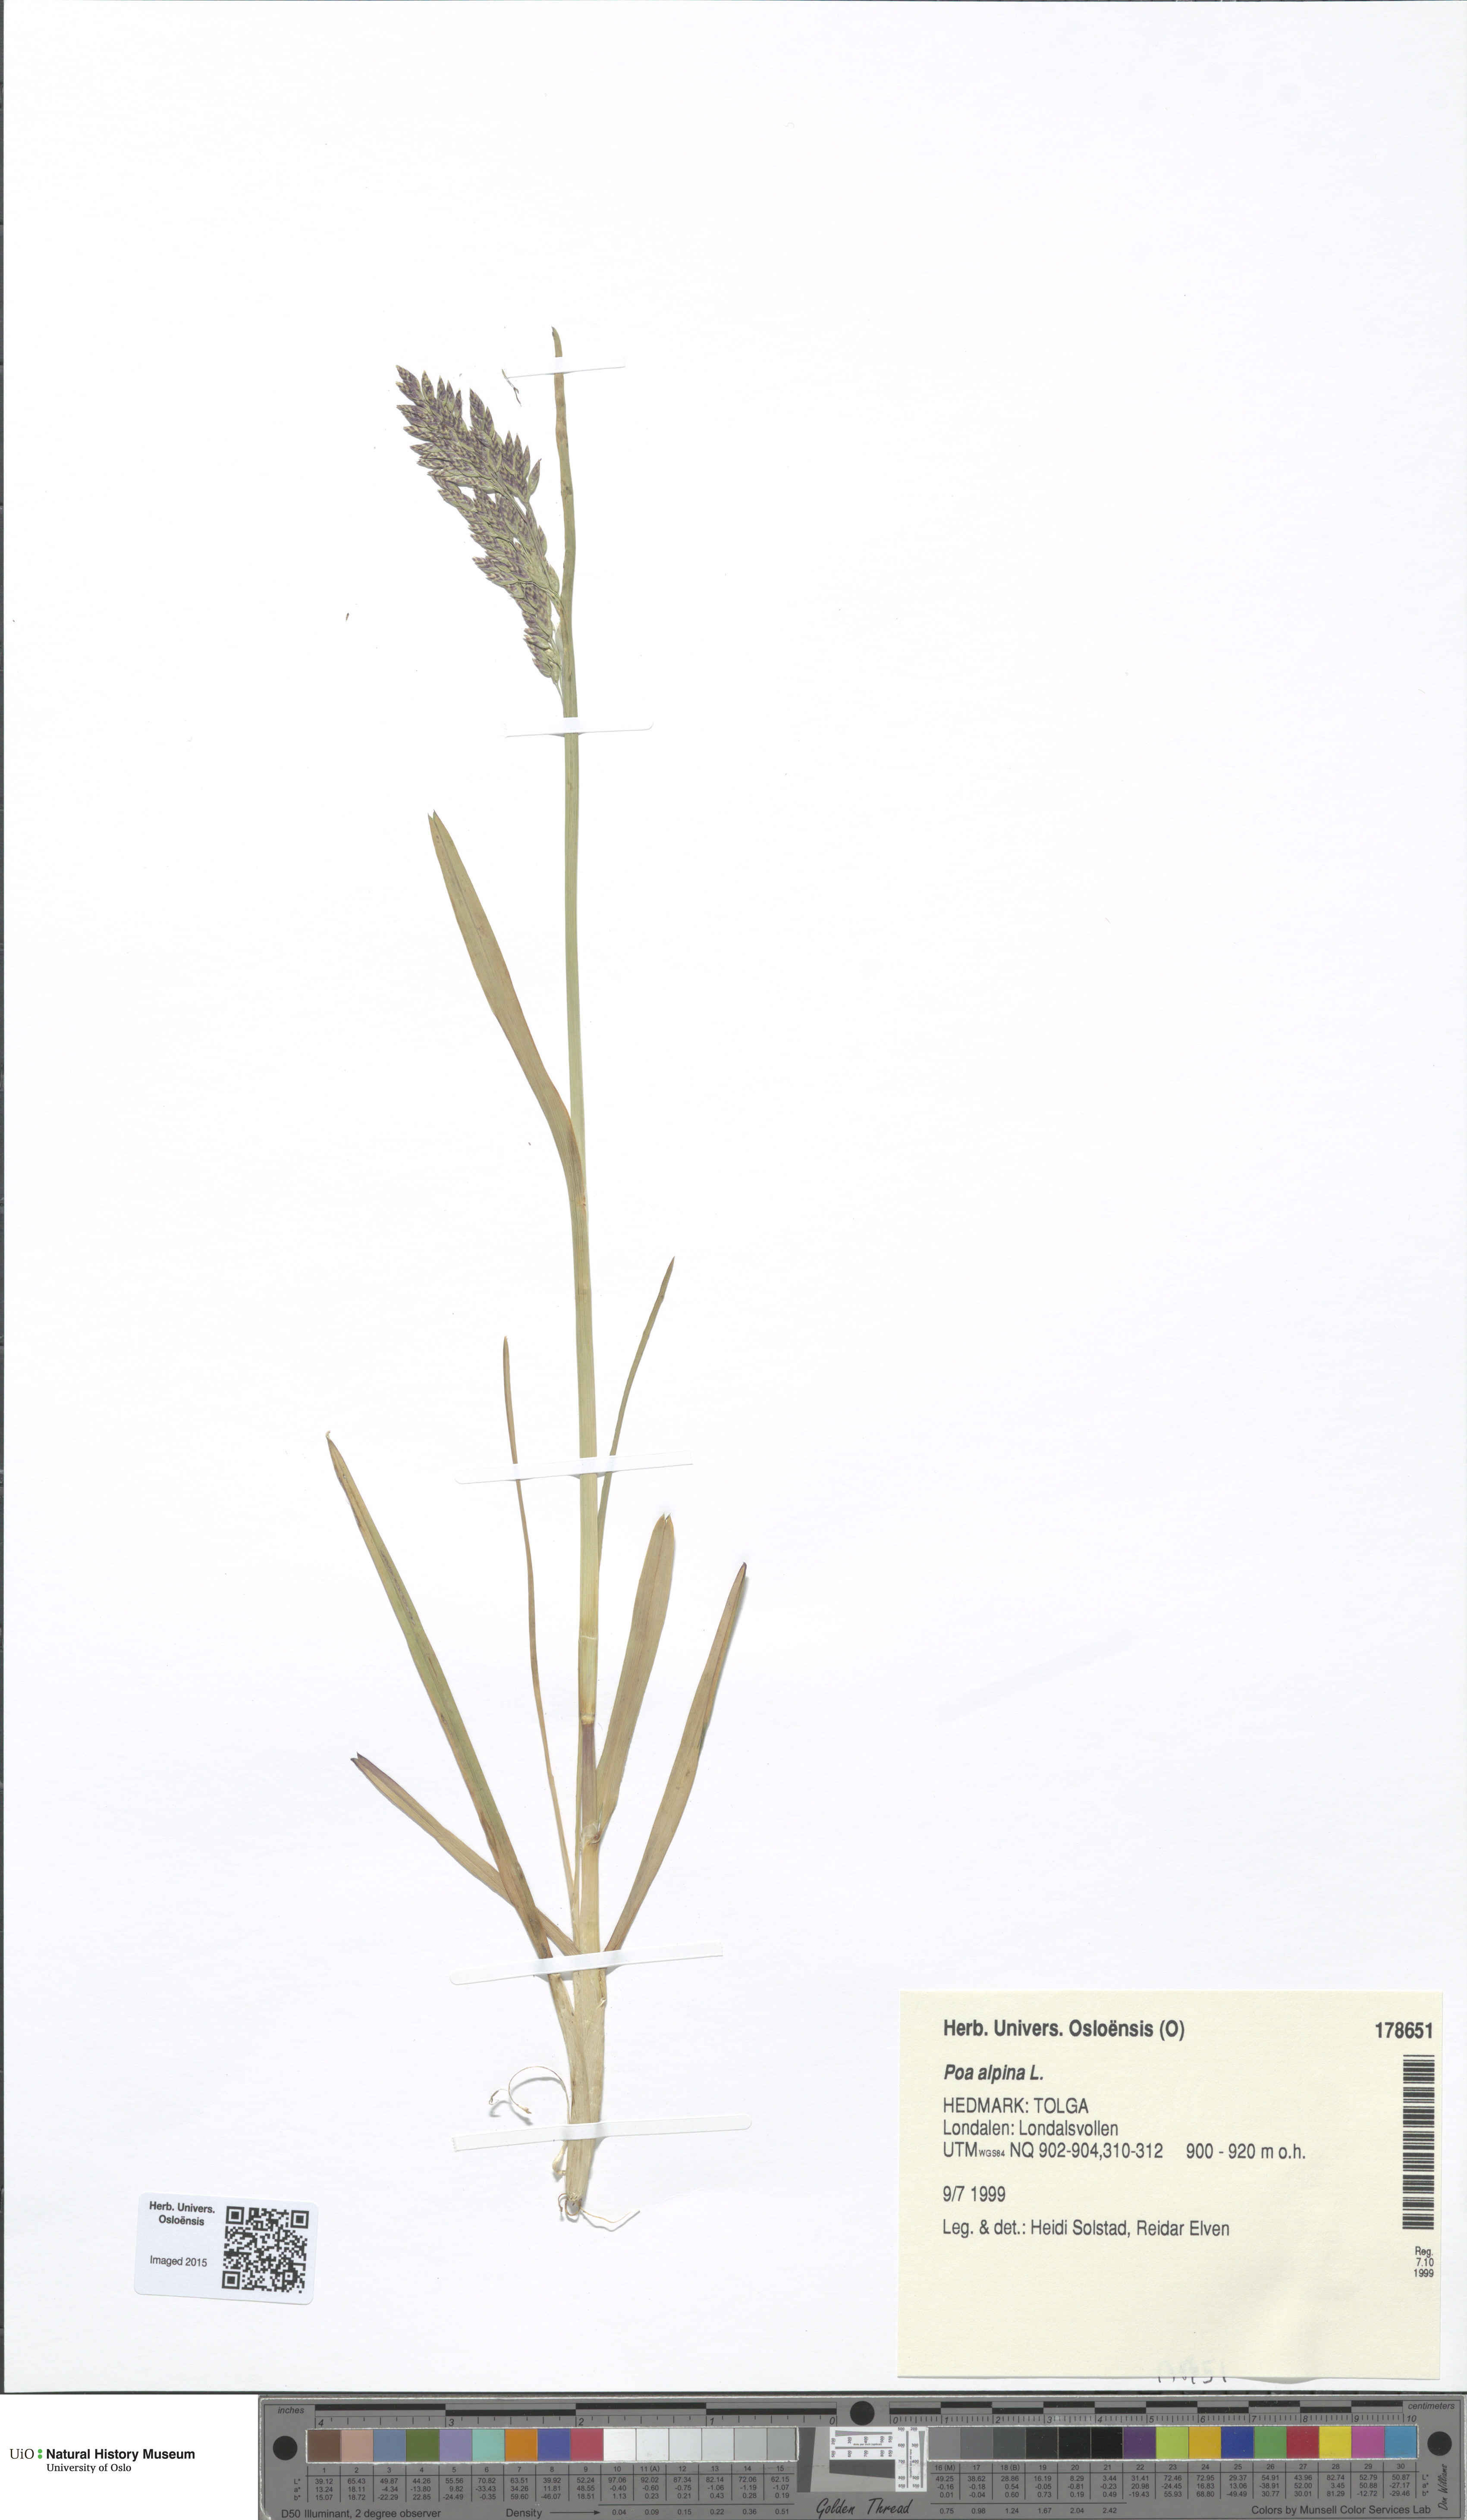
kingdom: Plantae
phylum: Tracheophyta
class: Liliopsida
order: Poales
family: Poaceae
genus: Poa
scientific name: Poa alpina
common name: Alpine bluegrass
